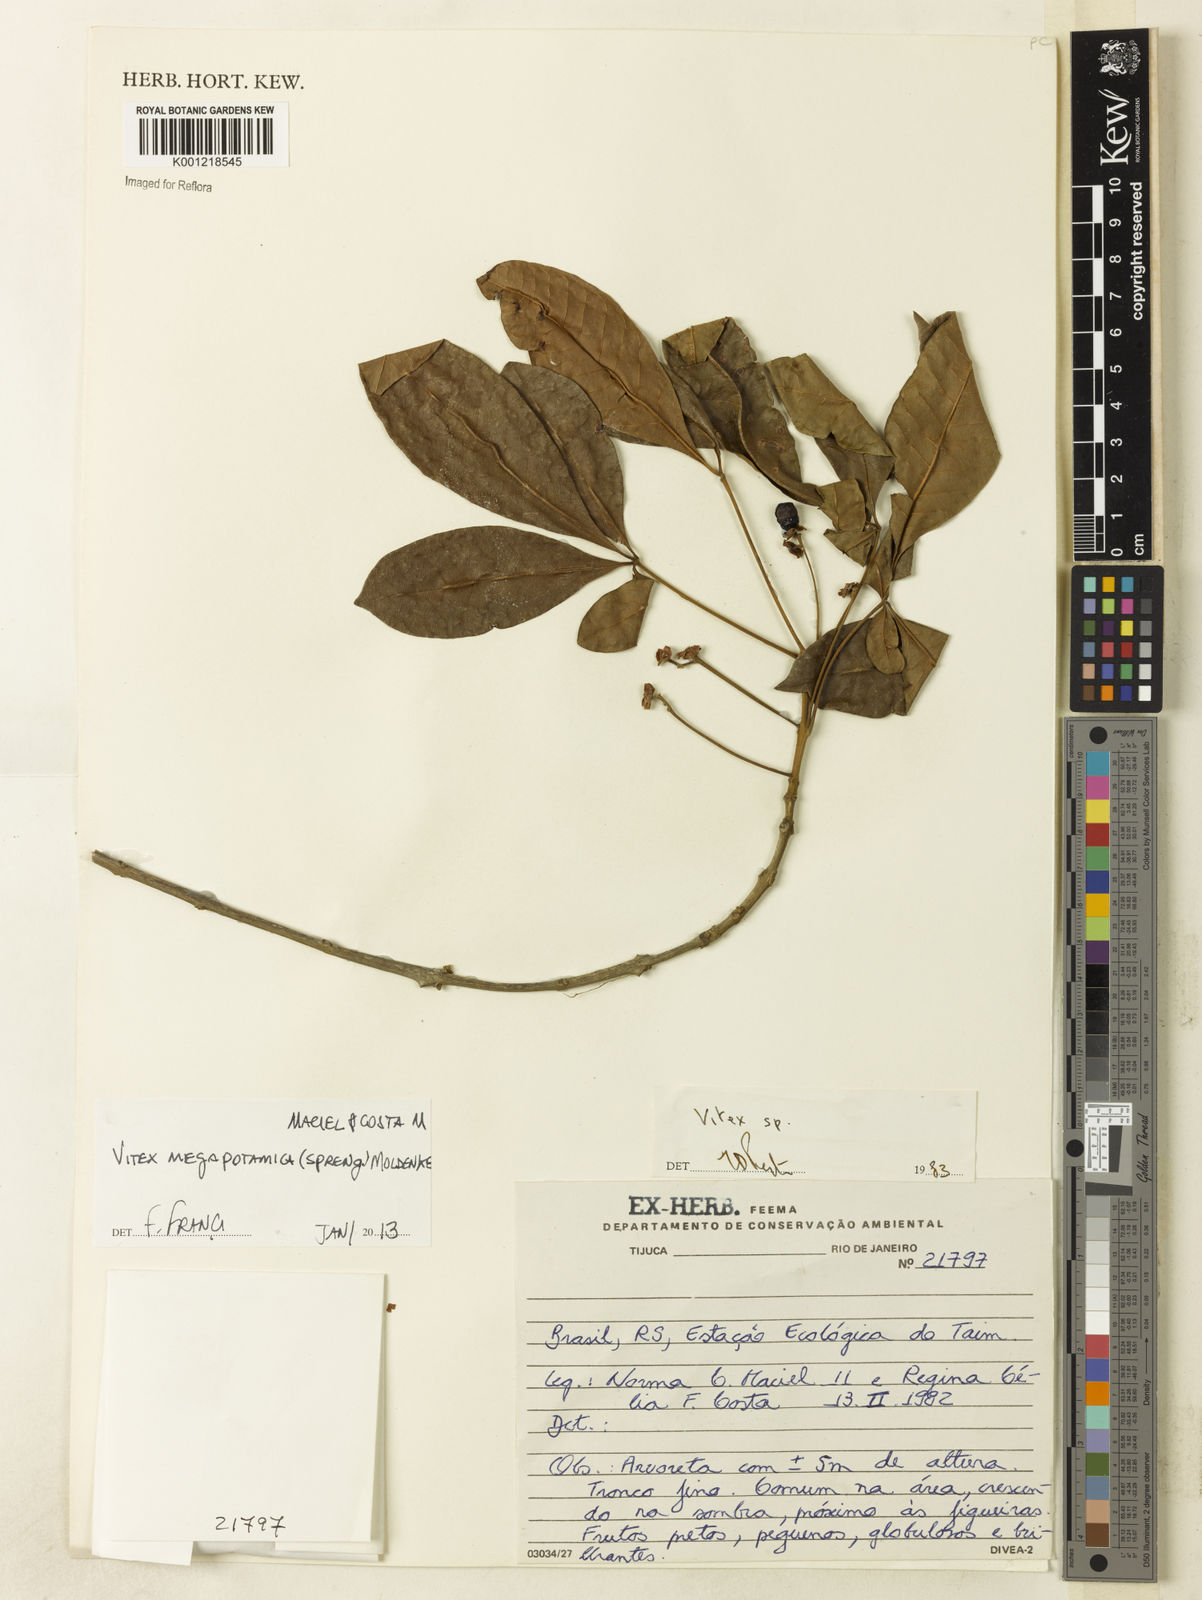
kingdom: Plantae
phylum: Tracheophyta
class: Magnoliopsida
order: Lamiales
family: Lamiaceae
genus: Vitex
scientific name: Vitex megapotamica
